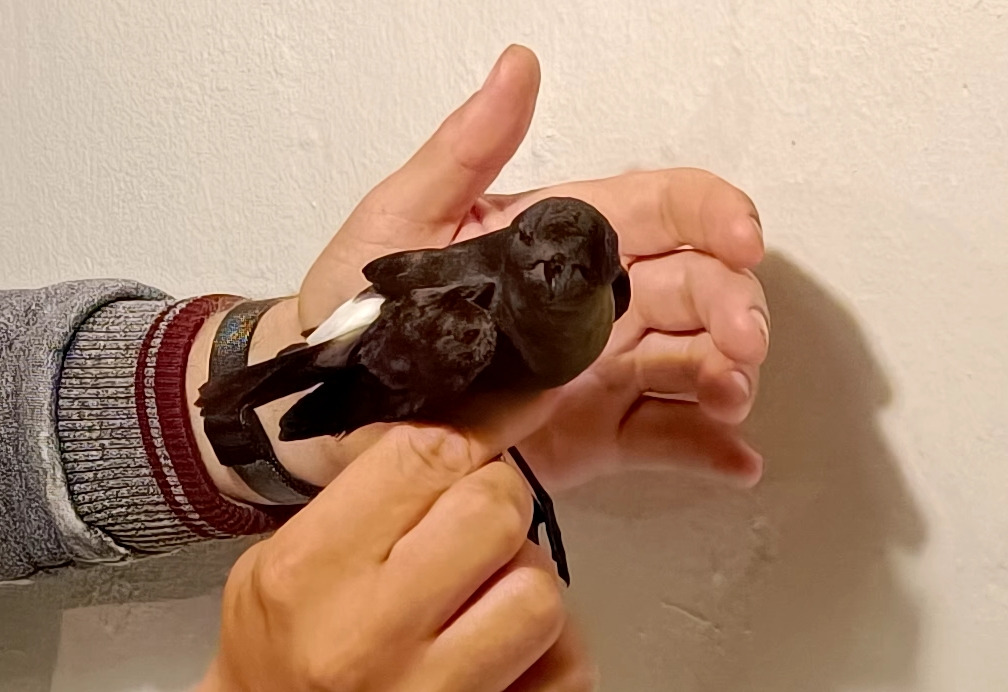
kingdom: Animalia
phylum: Chordata
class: Aves
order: Procellariiformes
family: Hydrobatidae
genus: Hydrobates
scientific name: Hydrobates pelagicus
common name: Lille stormsvale
